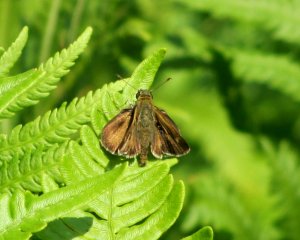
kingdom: Animalia
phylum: Arthropoda
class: Insecta
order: Lepidoptera
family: Hesperiidae
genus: Polites
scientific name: Polites themistocles
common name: Tawny-edged Skipper
